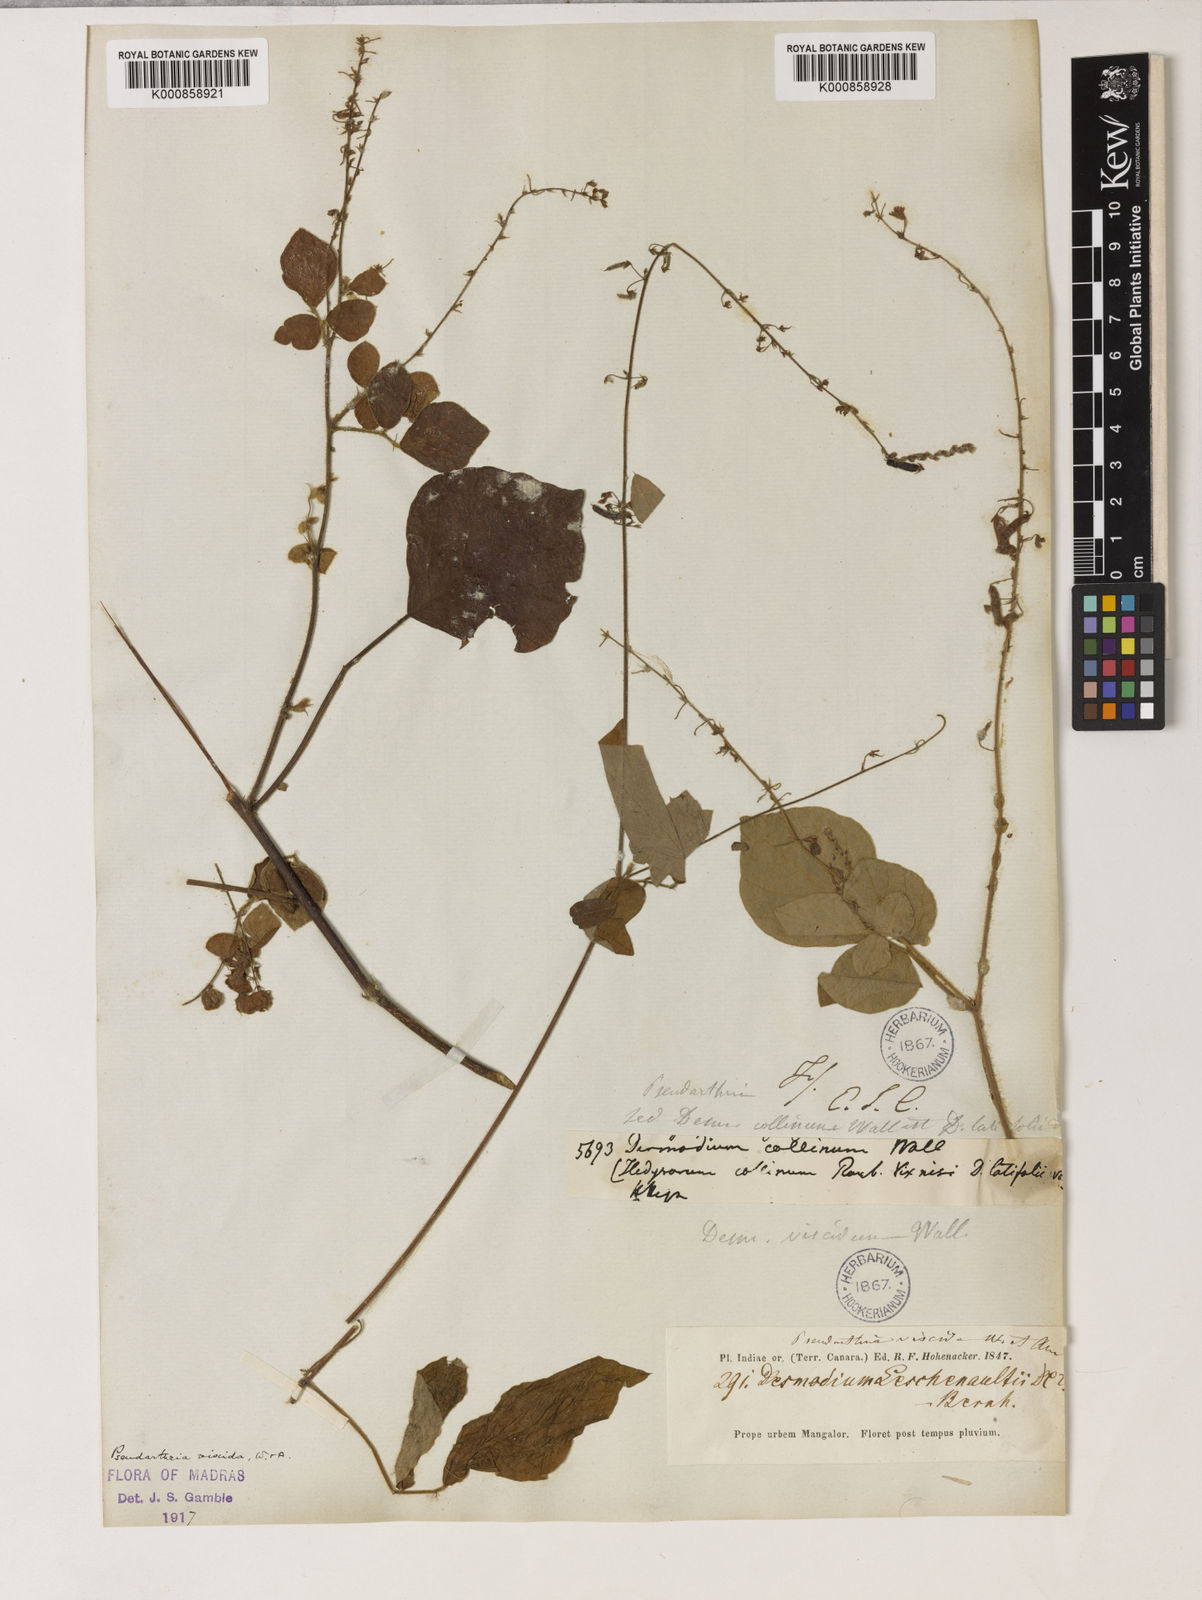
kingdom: Plantae
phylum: Tracheophyta
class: Magnoliopsida
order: Fabales
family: Fabaceae
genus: Pseudarthria
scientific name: Pseudarthria viscida
